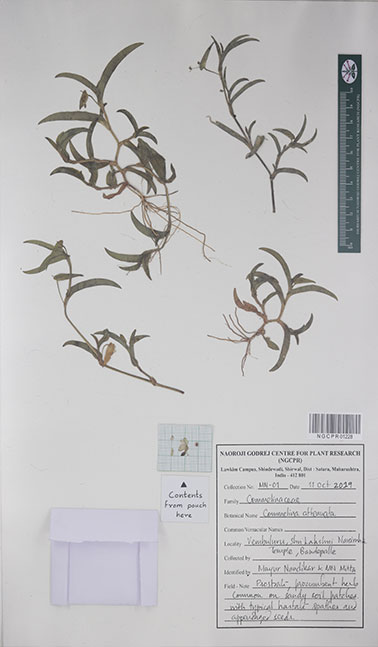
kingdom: Plantae
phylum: Tracheophyta
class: Liliopsida
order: Commelinales
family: Commelinaceae
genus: Commelina
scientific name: Commelina attenuata
